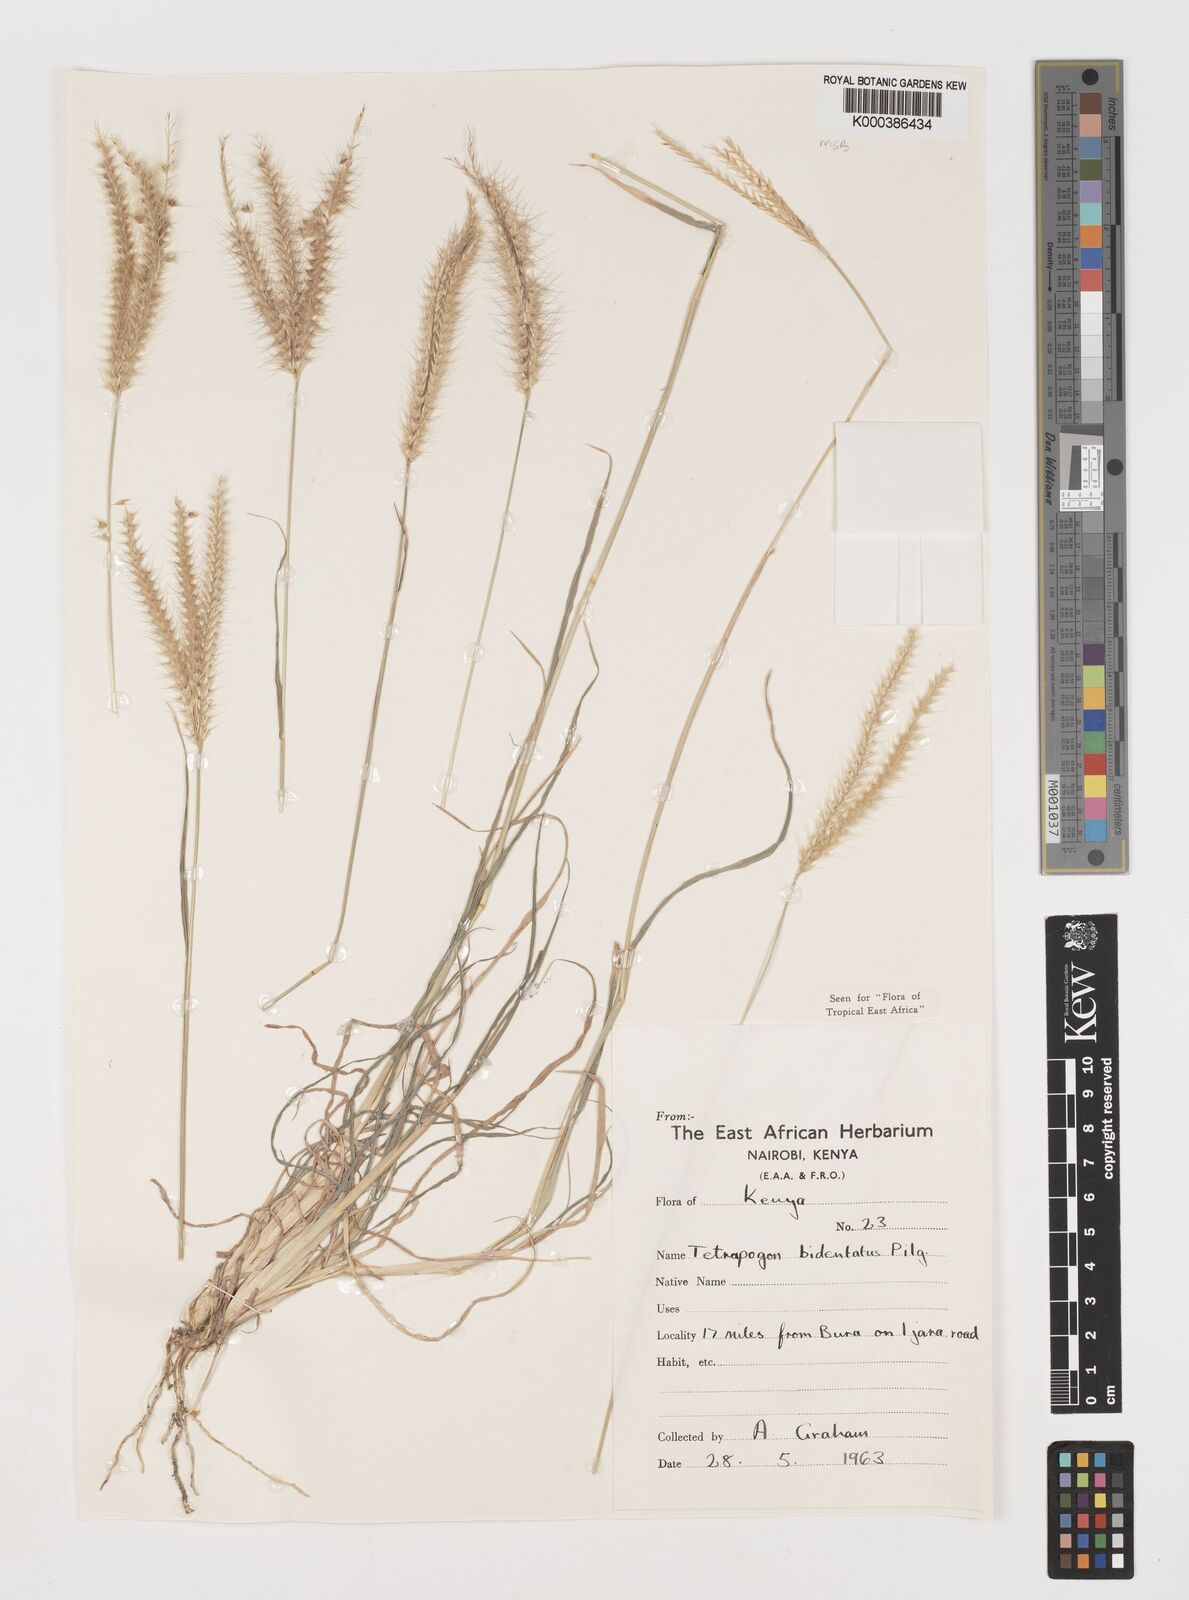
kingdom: Plantae
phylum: Tracheophyta
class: Liliopsida
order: Poales
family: Poaceae
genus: Tetrapogon
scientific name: Tetrapogon bidentatus
